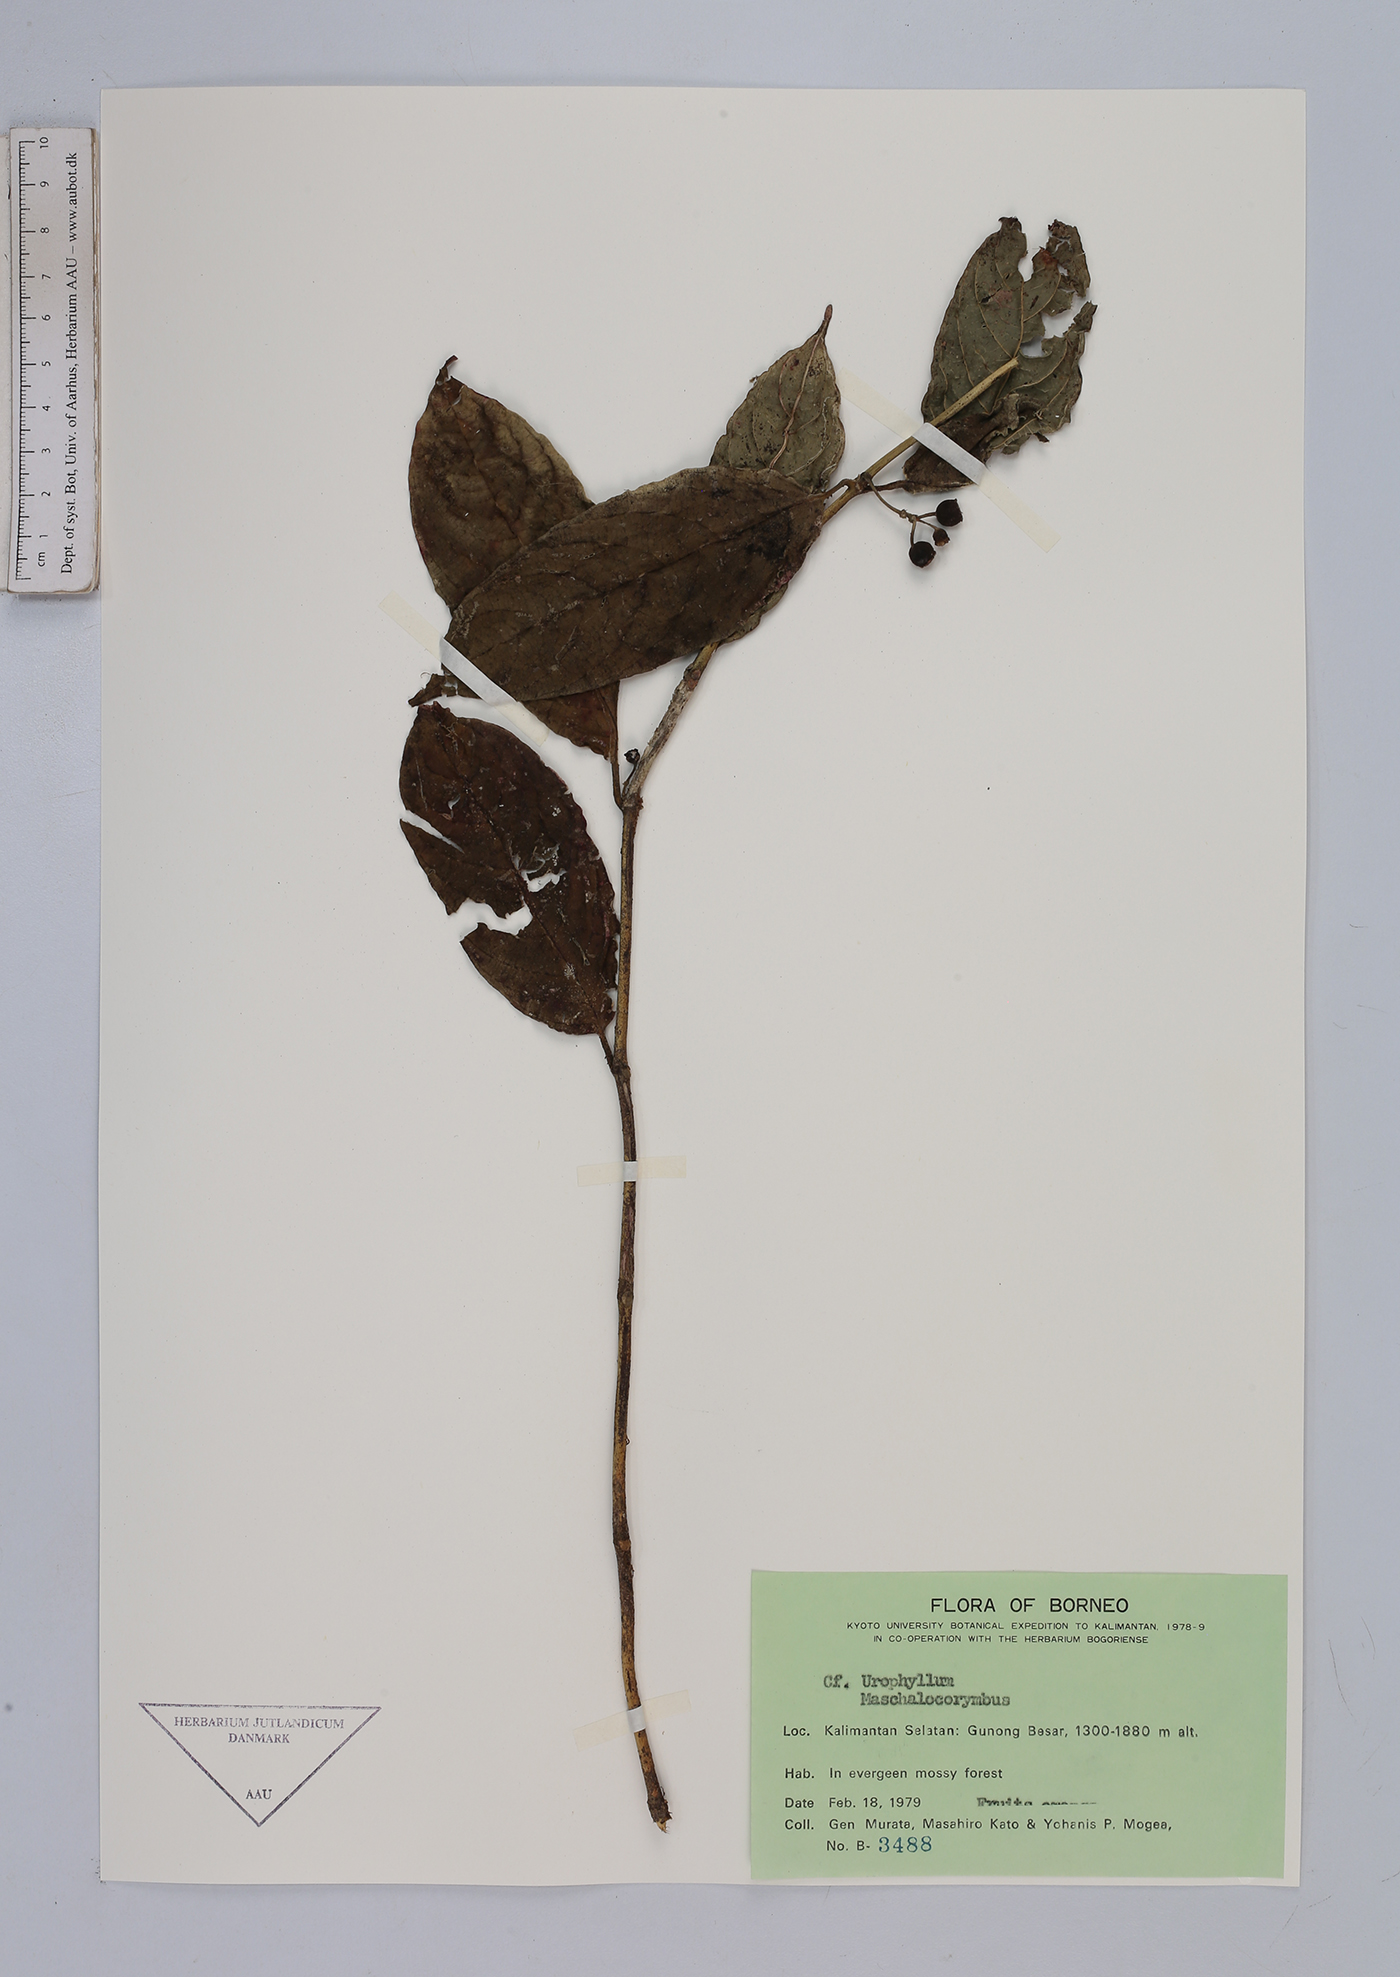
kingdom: Plantae
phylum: Tracheophyta
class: Magnoliopsida
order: Gentianales
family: Rubiaceae
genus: Urophyllum
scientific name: Urophyllum
